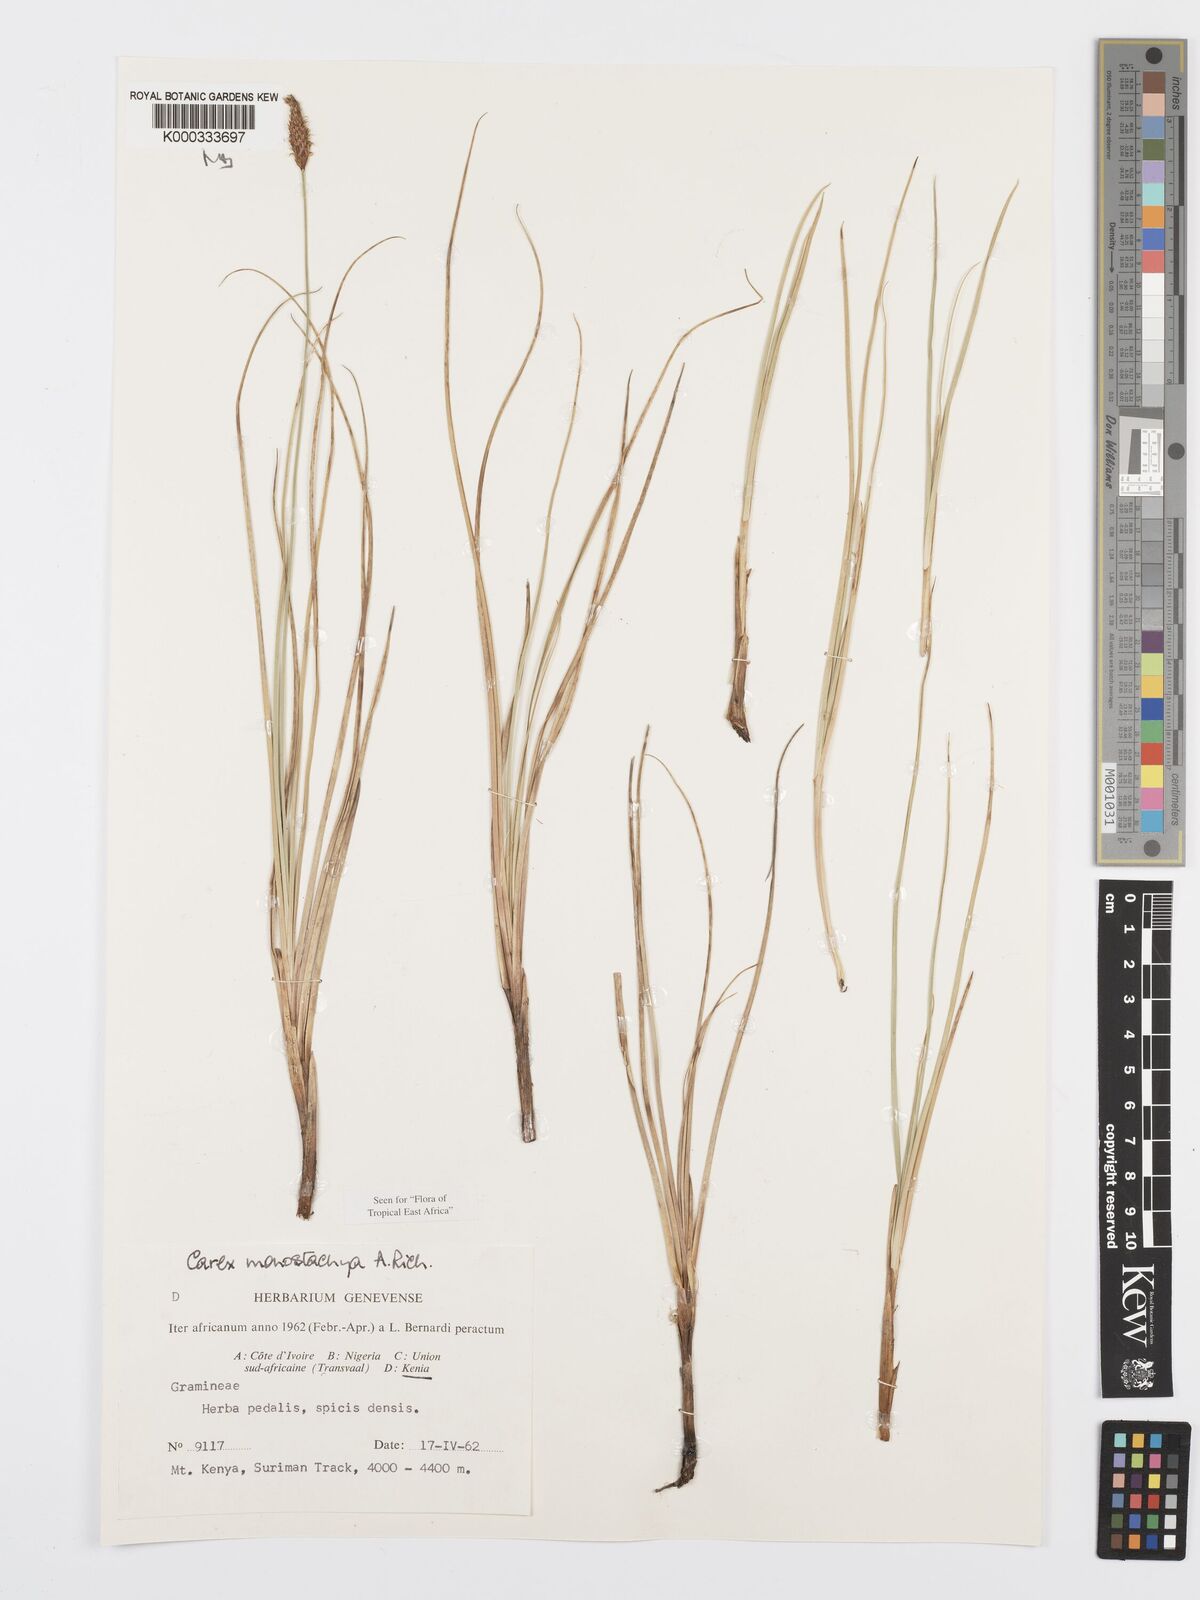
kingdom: Plantae
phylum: Tracheophyta
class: Liliopsida
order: Poales
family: Cyperaceae
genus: Carex
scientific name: Carex monostachya
